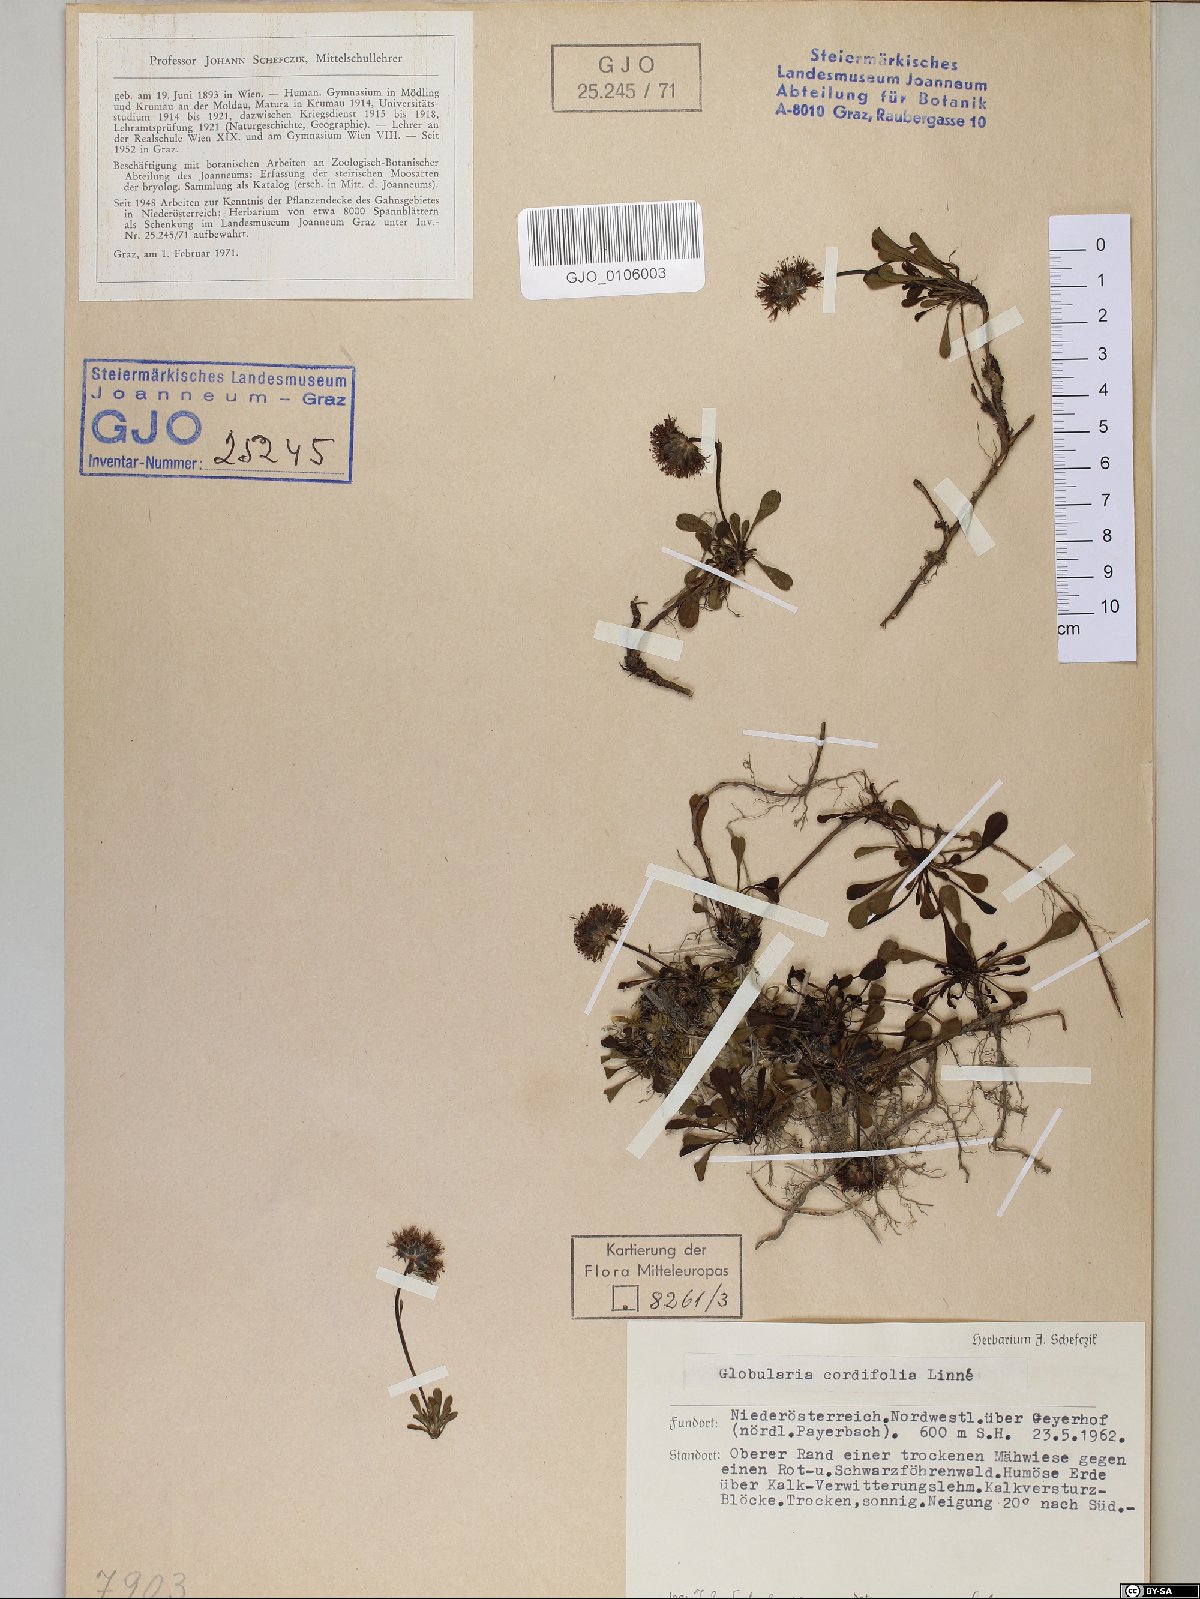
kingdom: Plantae
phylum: Tracheophyta
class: Magnoliopsida
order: Lamiales
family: Plantaginaceae
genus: Globularia
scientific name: Globularia cordifolia
